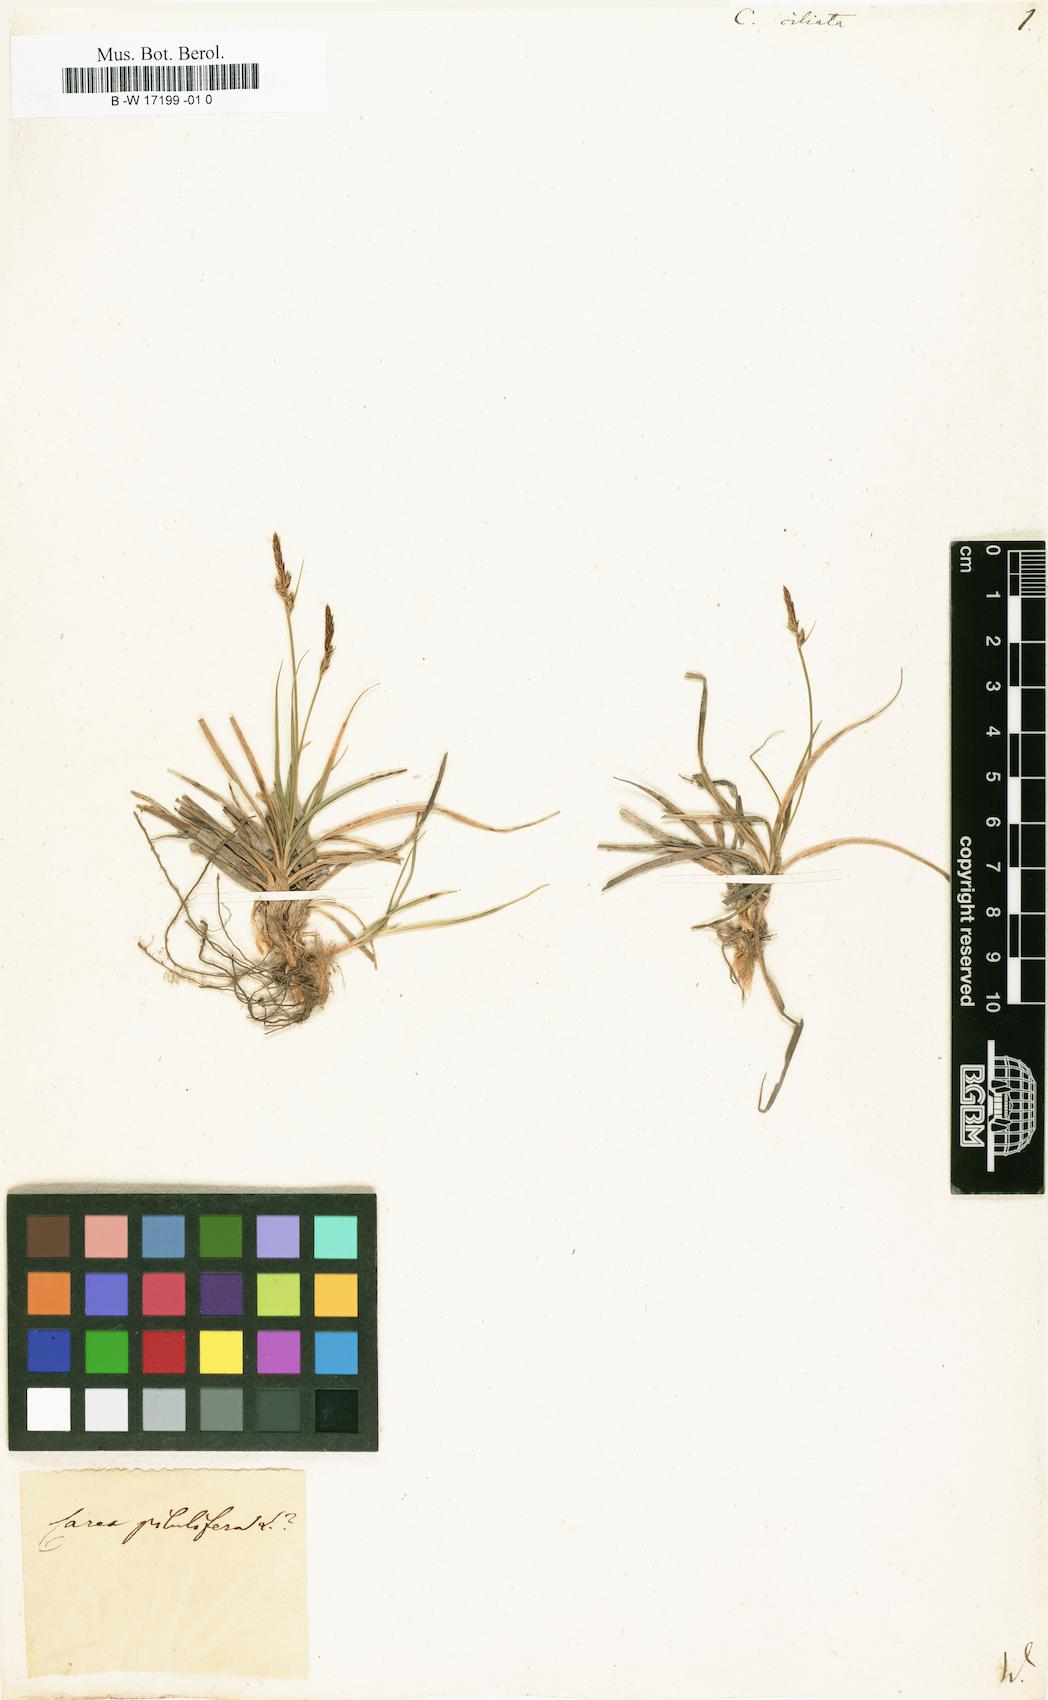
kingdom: Plantae
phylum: Tracheophyta
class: Liliopsida
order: Poales
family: Cyperaceae
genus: Carex
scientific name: Carex ericetorum
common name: Rare spring-sedge
